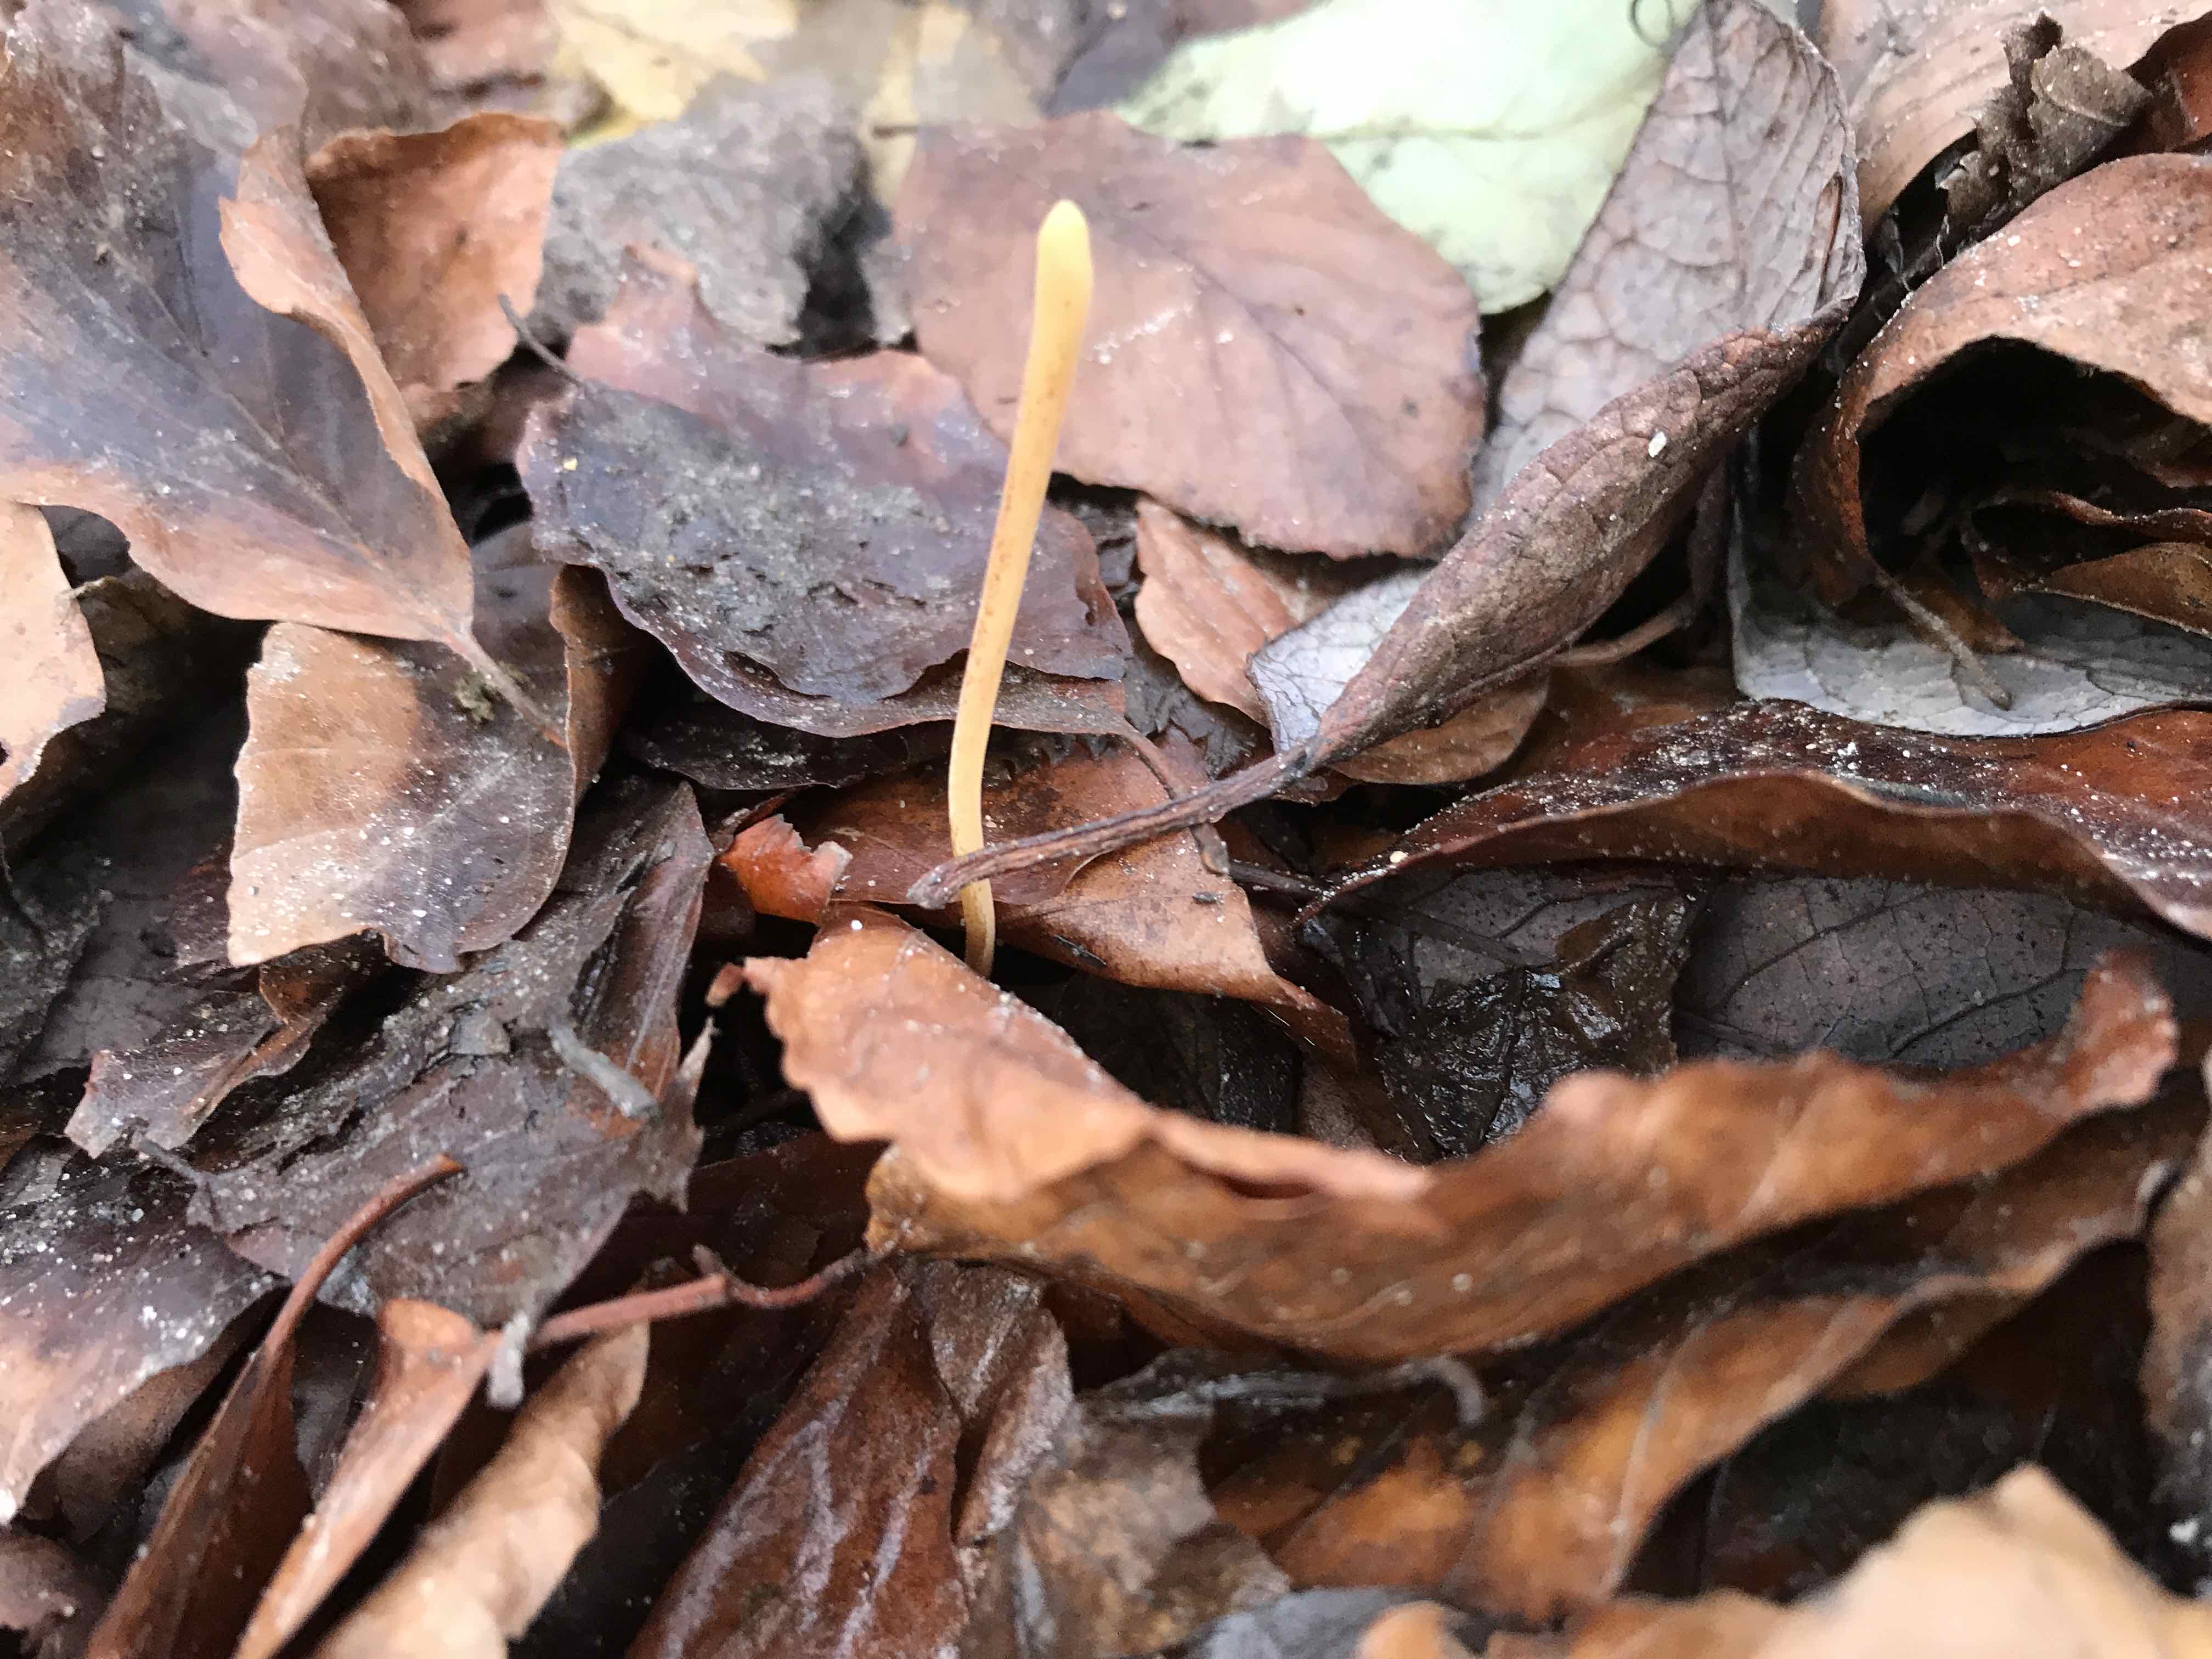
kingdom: Fungi
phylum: Basidiomycota
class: Agaricomycetes
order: Agaricales
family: Typhulaceae
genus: Typhula
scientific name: Typhula fistulosa
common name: pibet rørkølle
